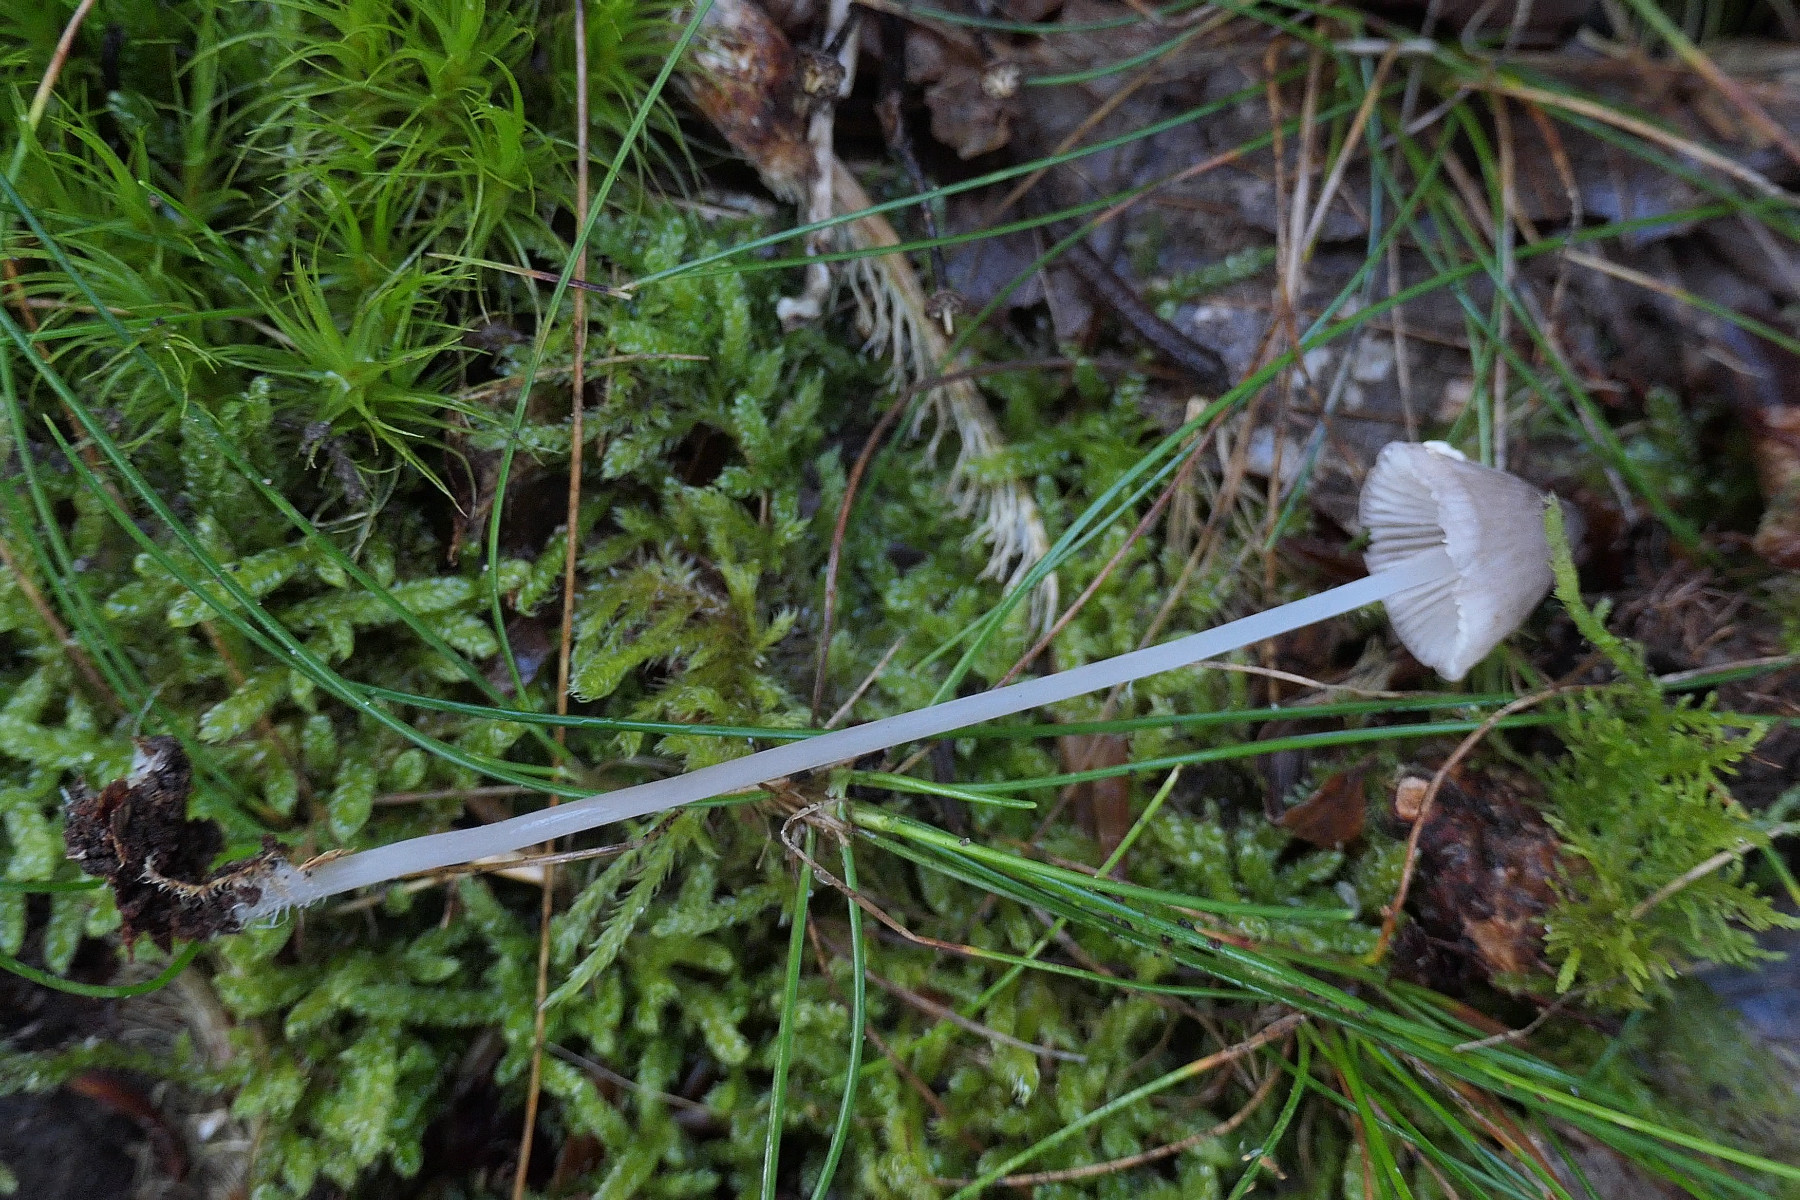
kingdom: Fungi
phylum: Basidiomycota
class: Agaricomycetes
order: Agaricales
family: Mycenaceae
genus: Mycena
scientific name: Mycena filopes
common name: jod-huesvamp
